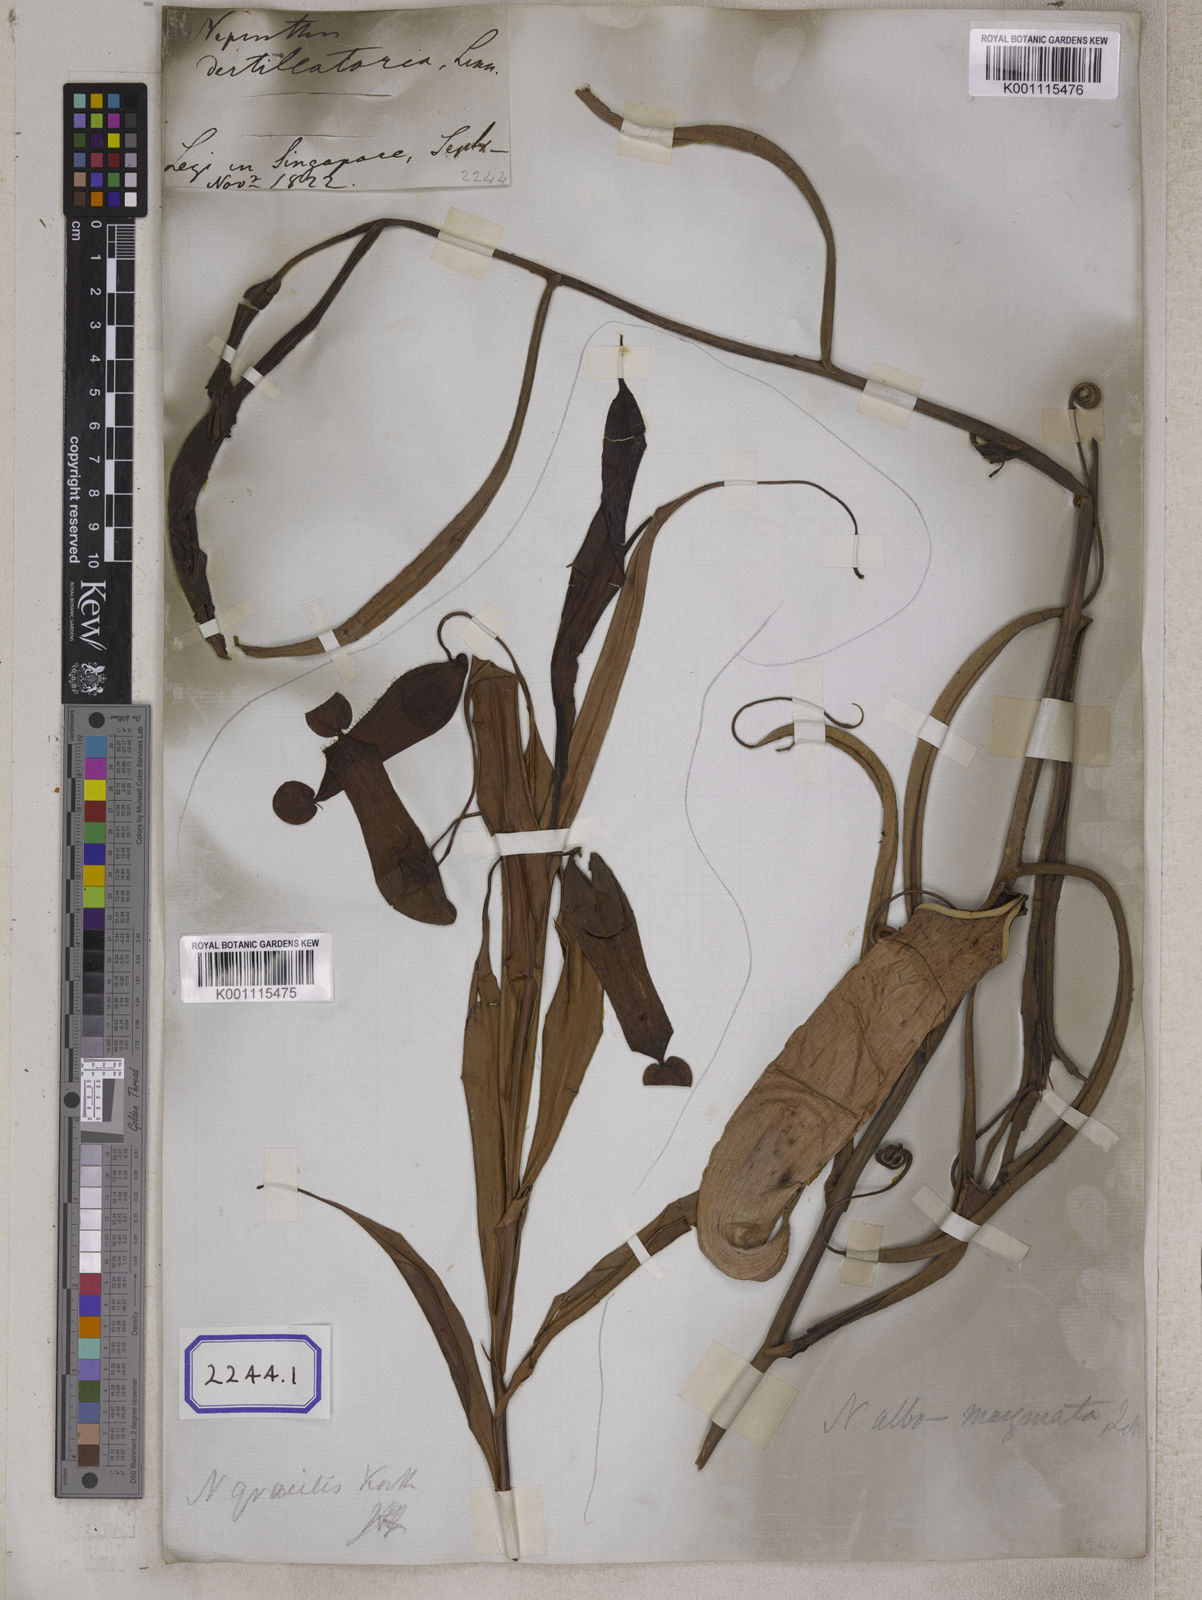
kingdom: Plantae
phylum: Tracheophyta
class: Magnoliopsida
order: Caryophyllales
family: Nepenthaceae
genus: Nepenthes
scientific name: Nepenthes distillatoria
